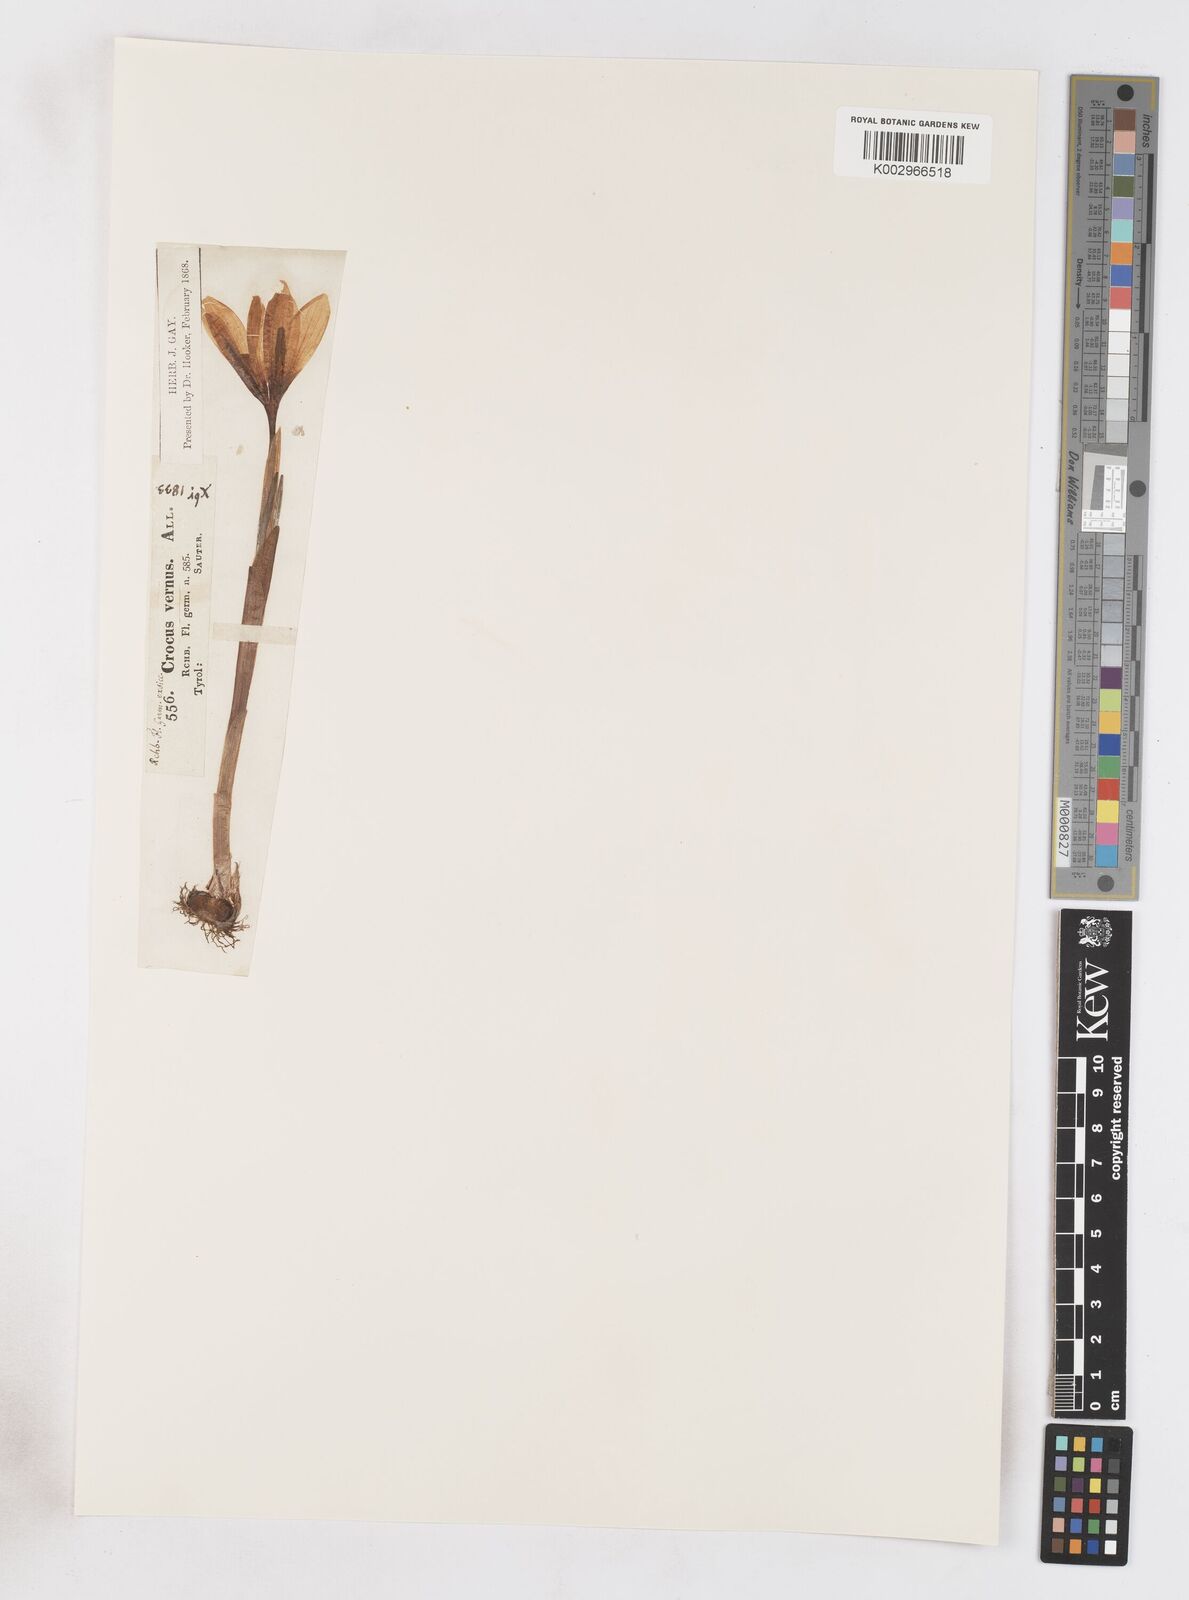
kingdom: Plantae
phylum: Tracheophyta
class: Liliopsida
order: Asparagales
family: Iridaceae
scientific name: Iridaceae
